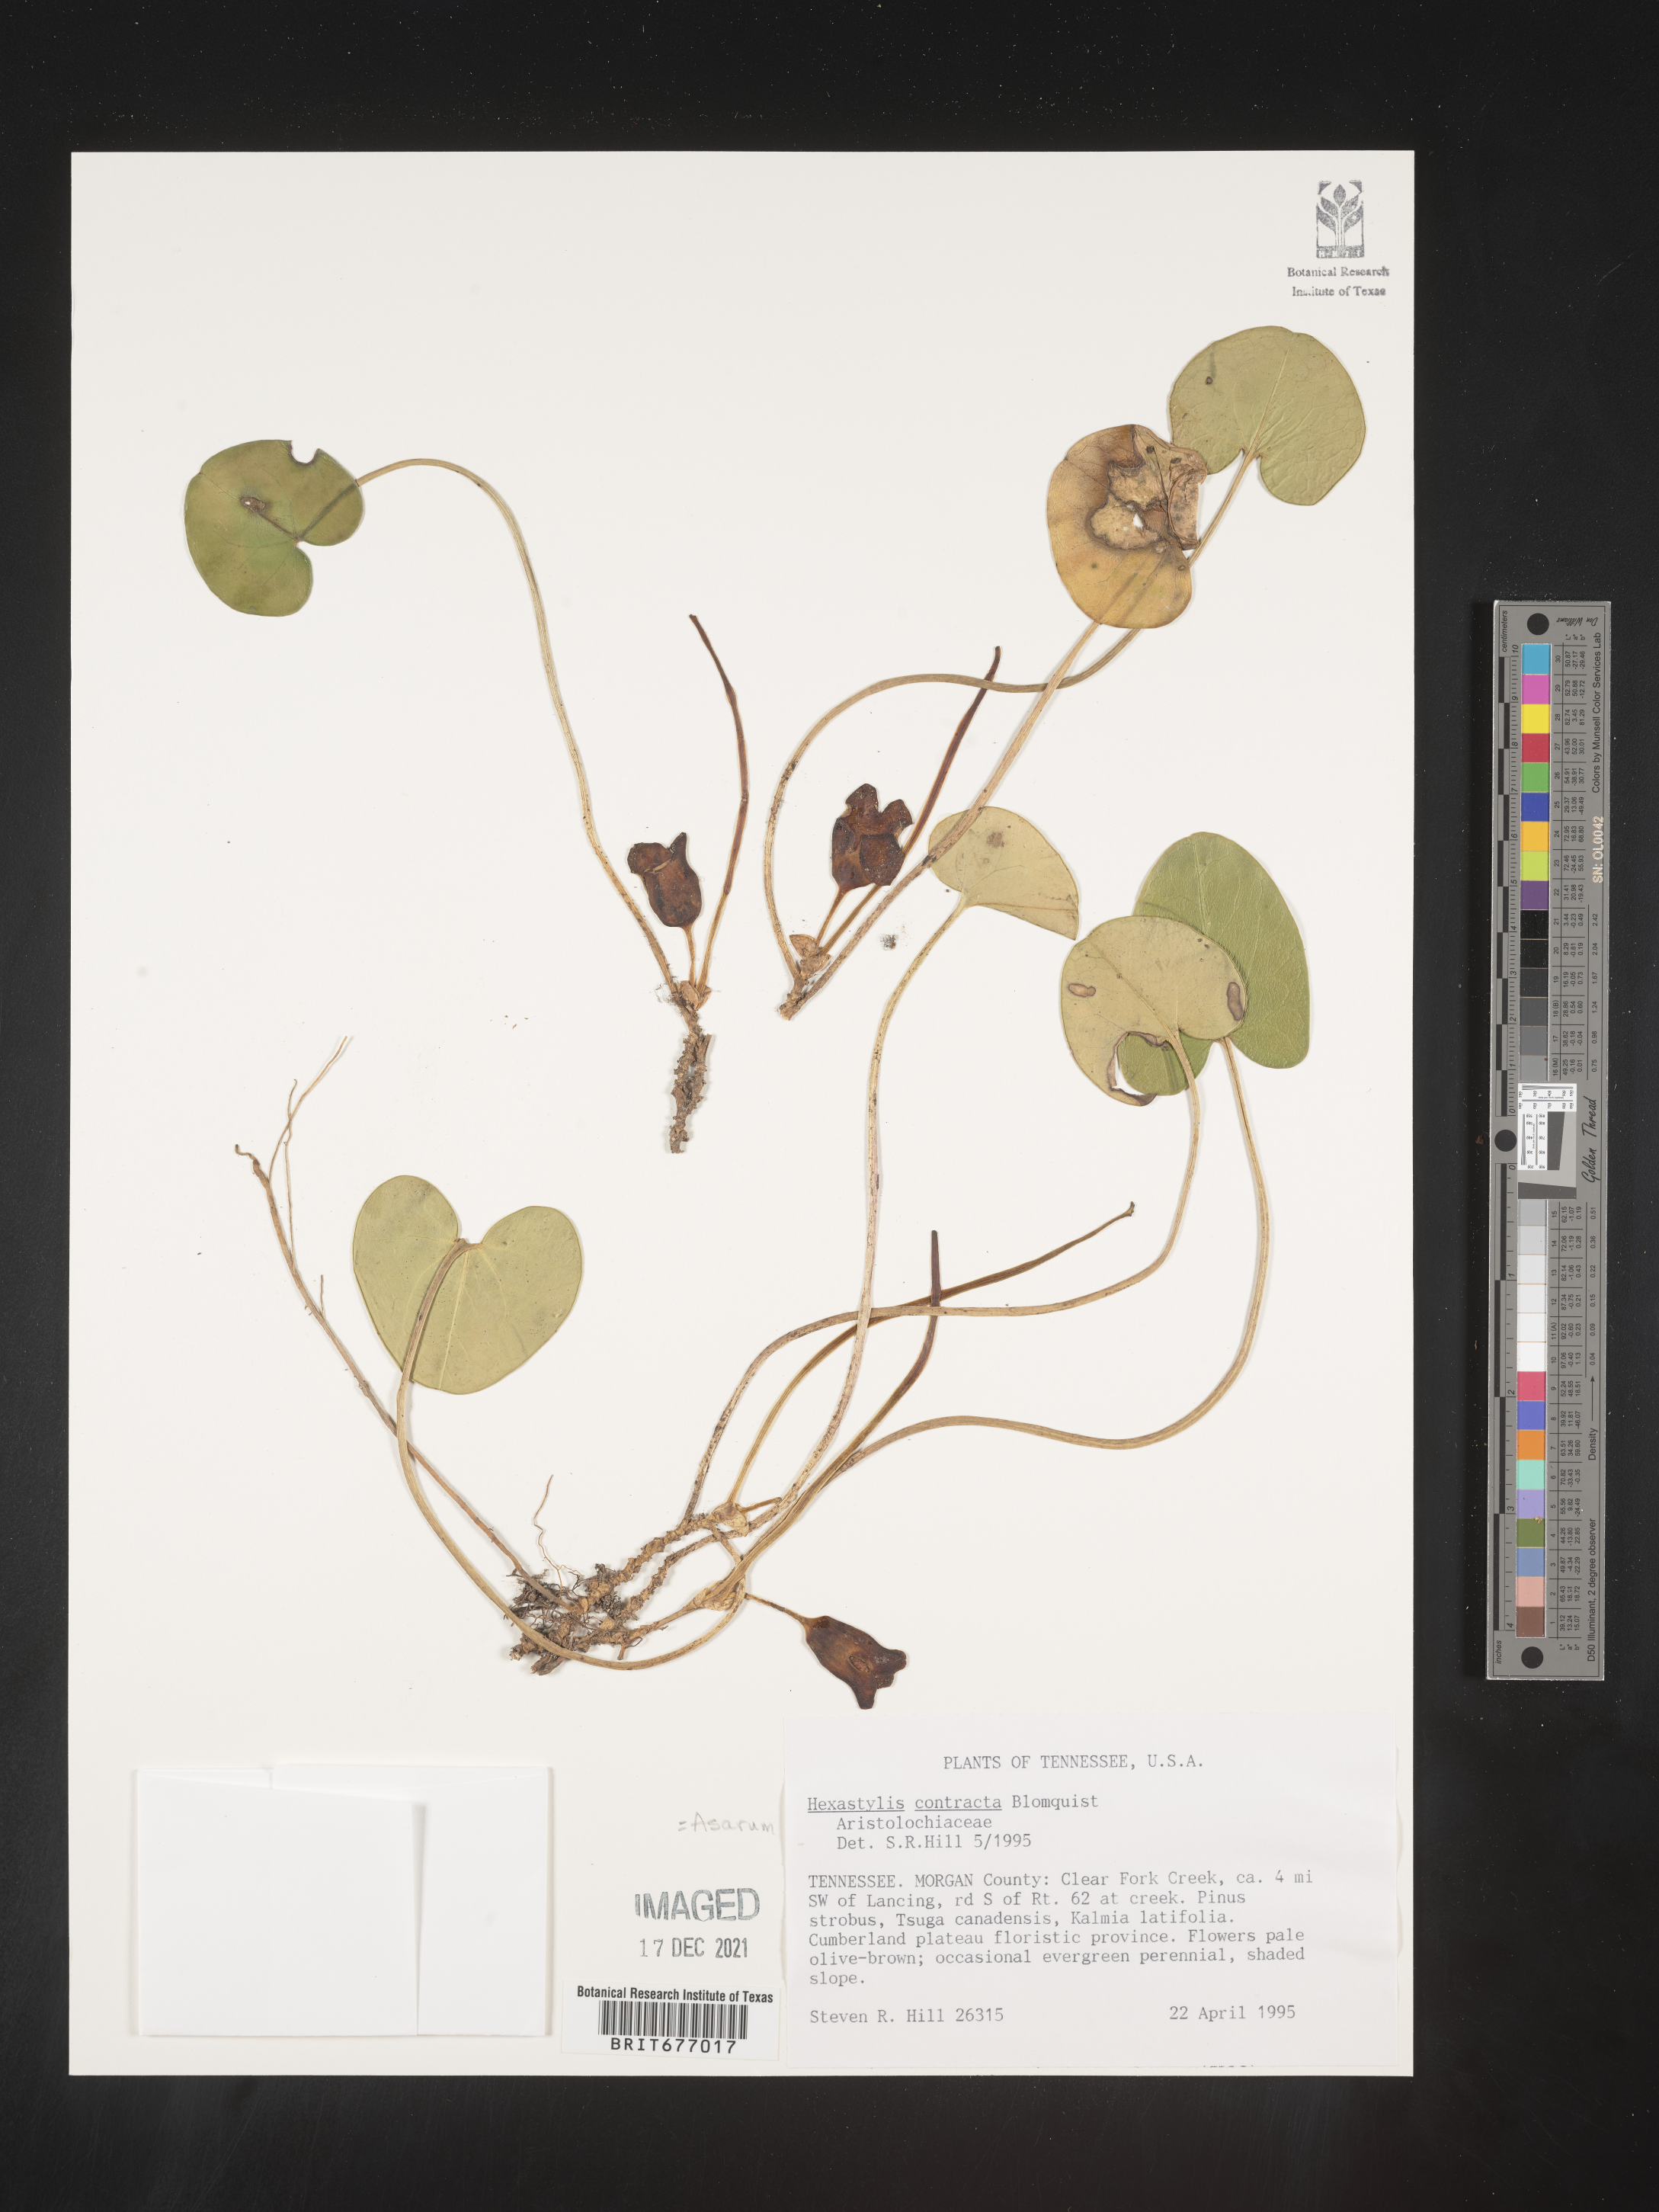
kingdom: Plantae
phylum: Tracheophyta
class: Magnoliopsida
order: Piperales
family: Aristolochiaceae
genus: Asarum
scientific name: Asarum
